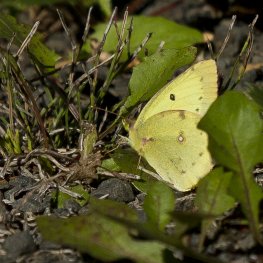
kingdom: Animalia
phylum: Arthropoda
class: Insecta
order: Lepidoptera
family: Pieridae
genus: Colias
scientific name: Colias philodice
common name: Clouded Sulphur
